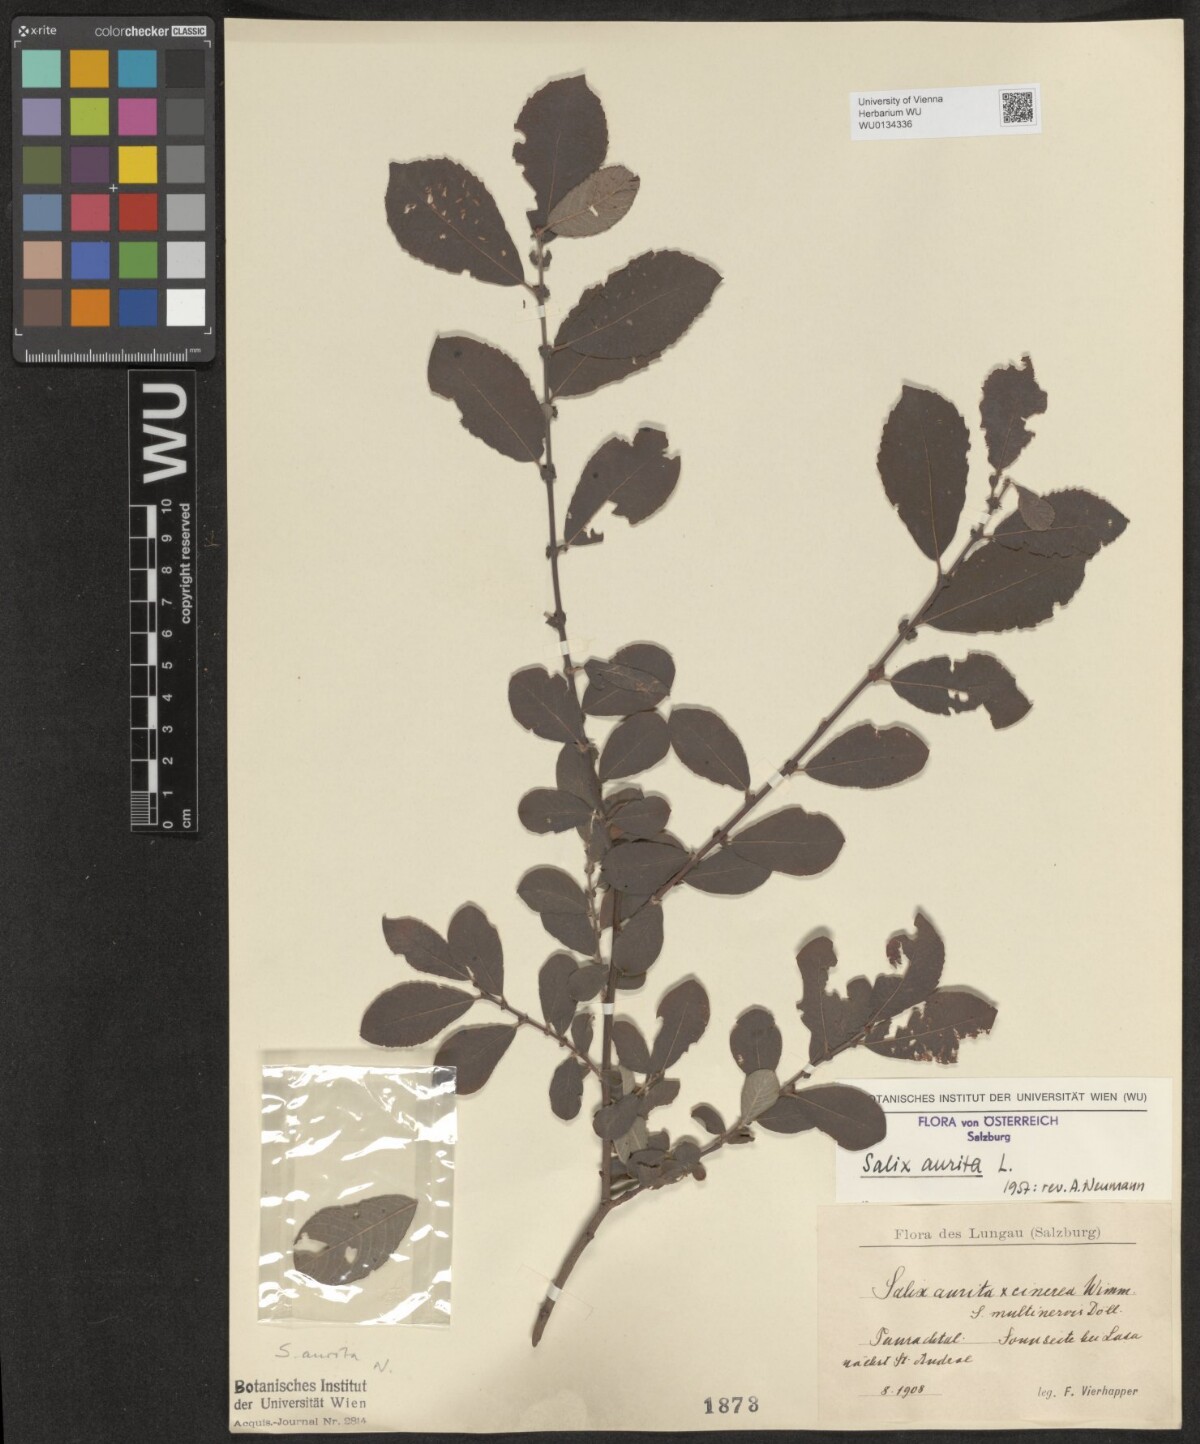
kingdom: Plantae
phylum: Tracheophyta
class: Magnoliopsida
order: Malpighiales
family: Salicaceae
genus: Salix
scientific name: Salix aurita
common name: Eared willow
